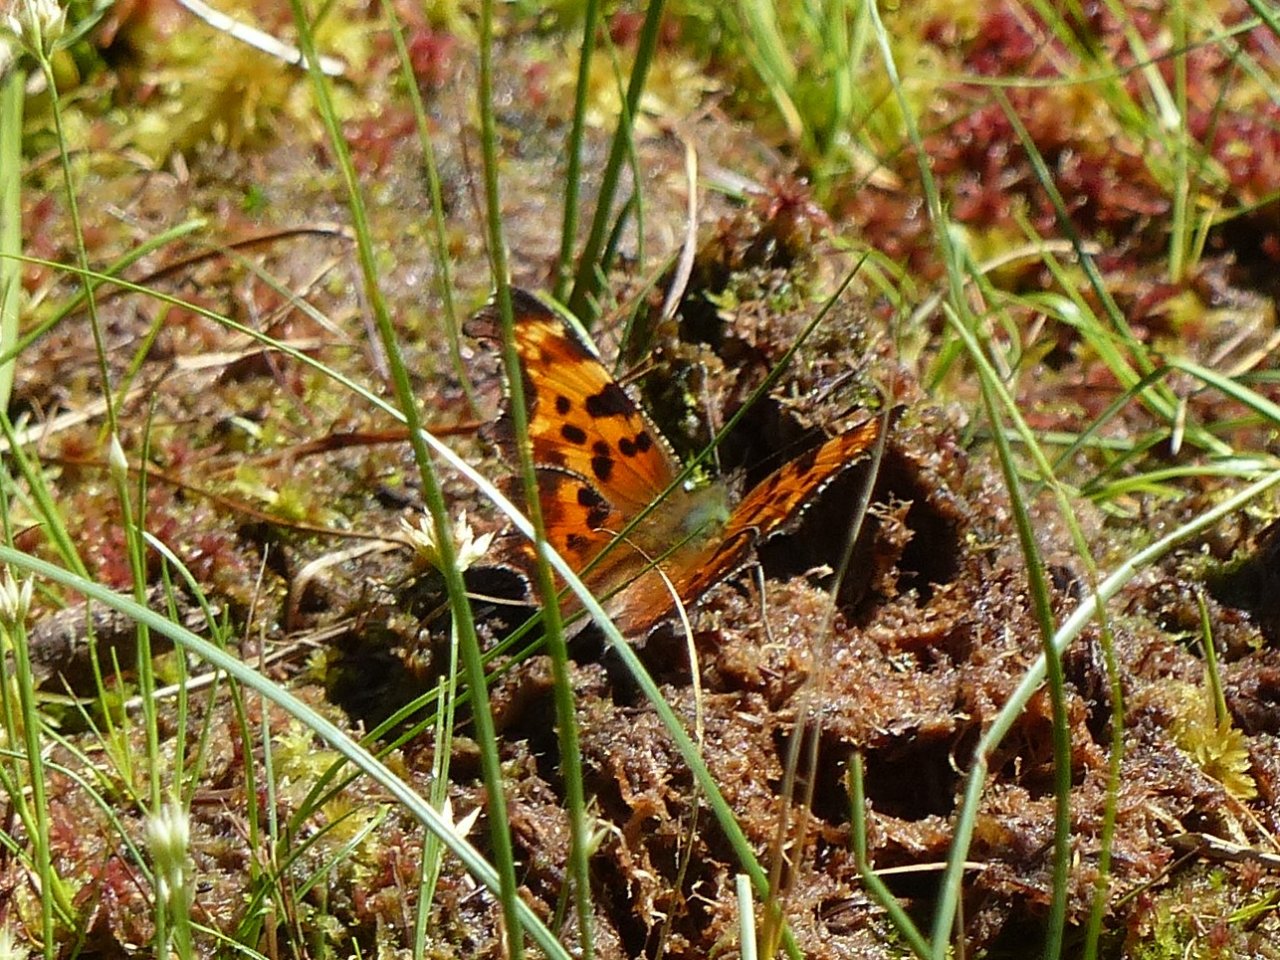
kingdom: Animalia
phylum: Arthropoda
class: Insecta
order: Lepidoptera
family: Nymphalidae
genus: Polygonia
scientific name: Polygonia faunus
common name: Green Comma
